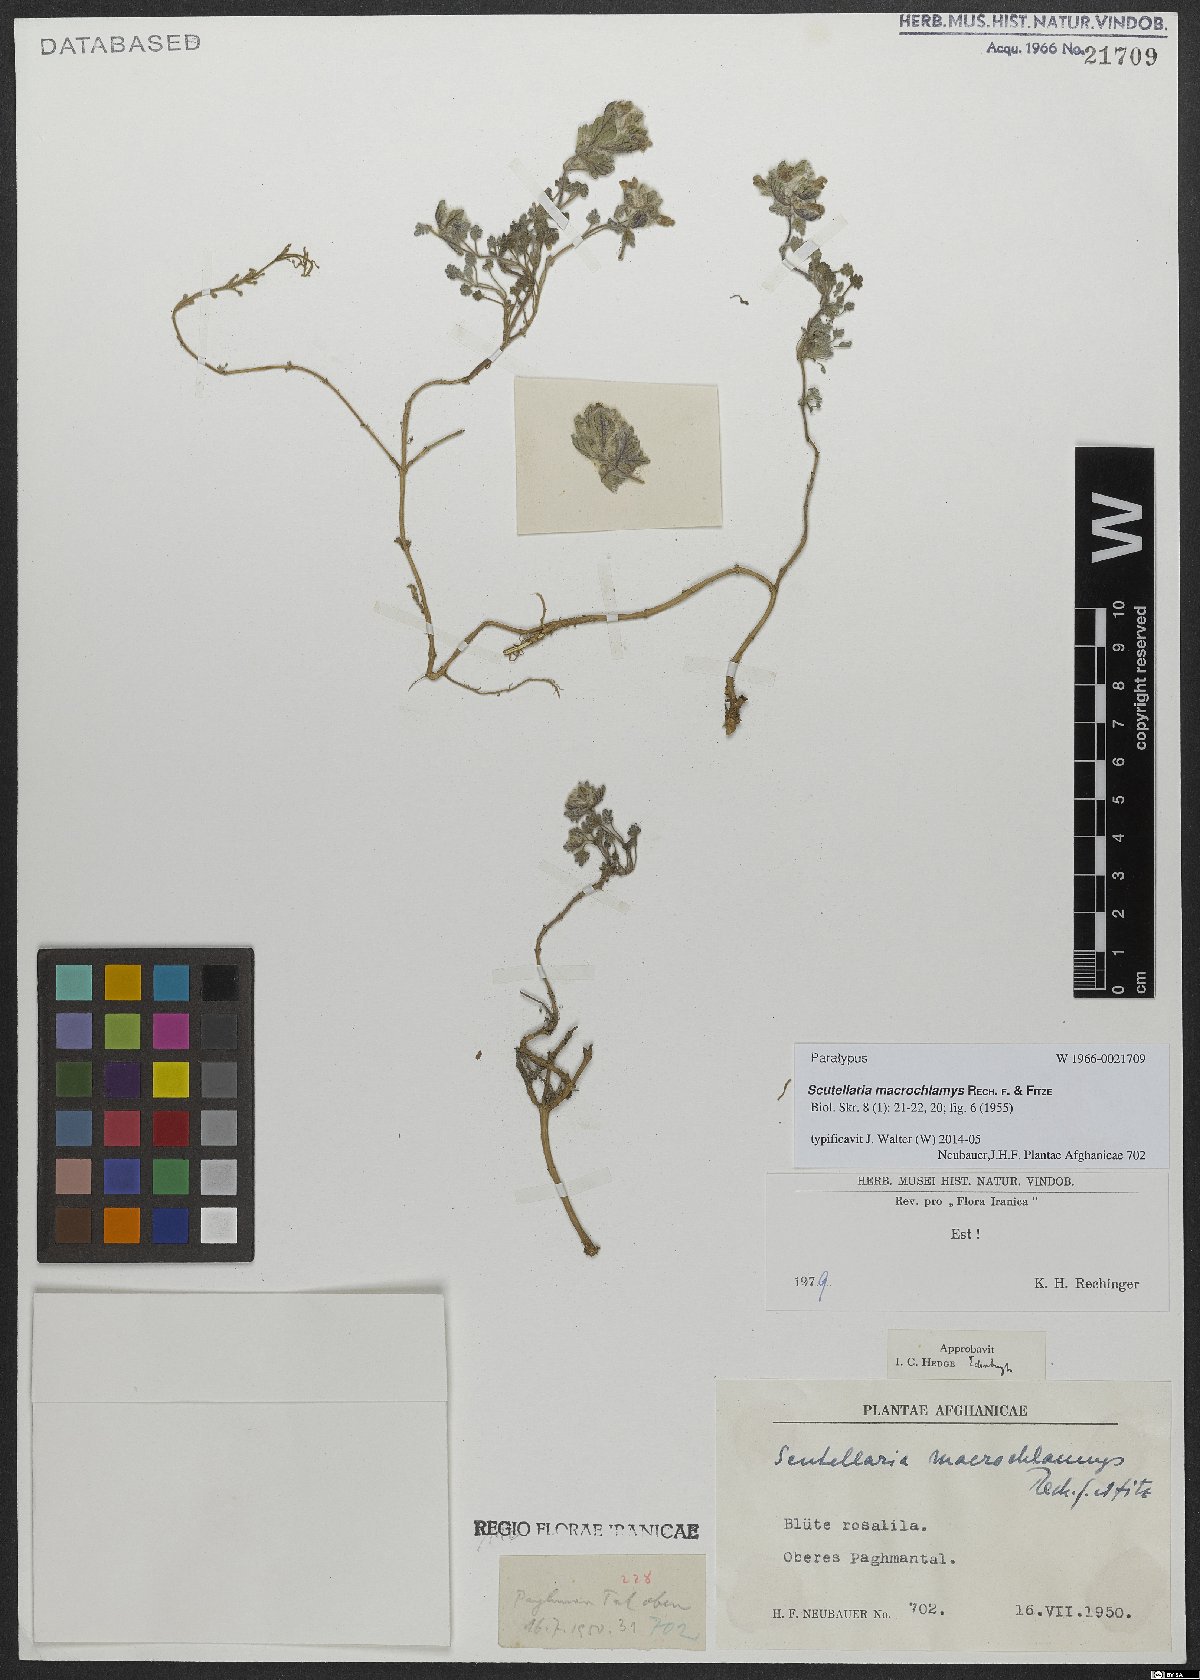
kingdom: Plantae
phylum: Tracheophyta
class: Magnoliopsida
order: Lamiales
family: Lamiaceae
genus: Scutellaria
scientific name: Scutellaria macrochlamys
